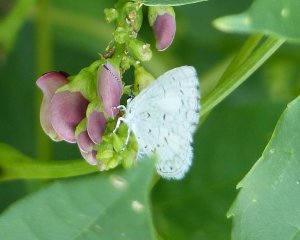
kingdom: Animalia
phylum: Arthropoda
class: Insecta
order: Lepidoptera
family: Lycaenidae
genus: Cyaniris
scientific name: Cyaniris neglecta
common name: Summer Azure
